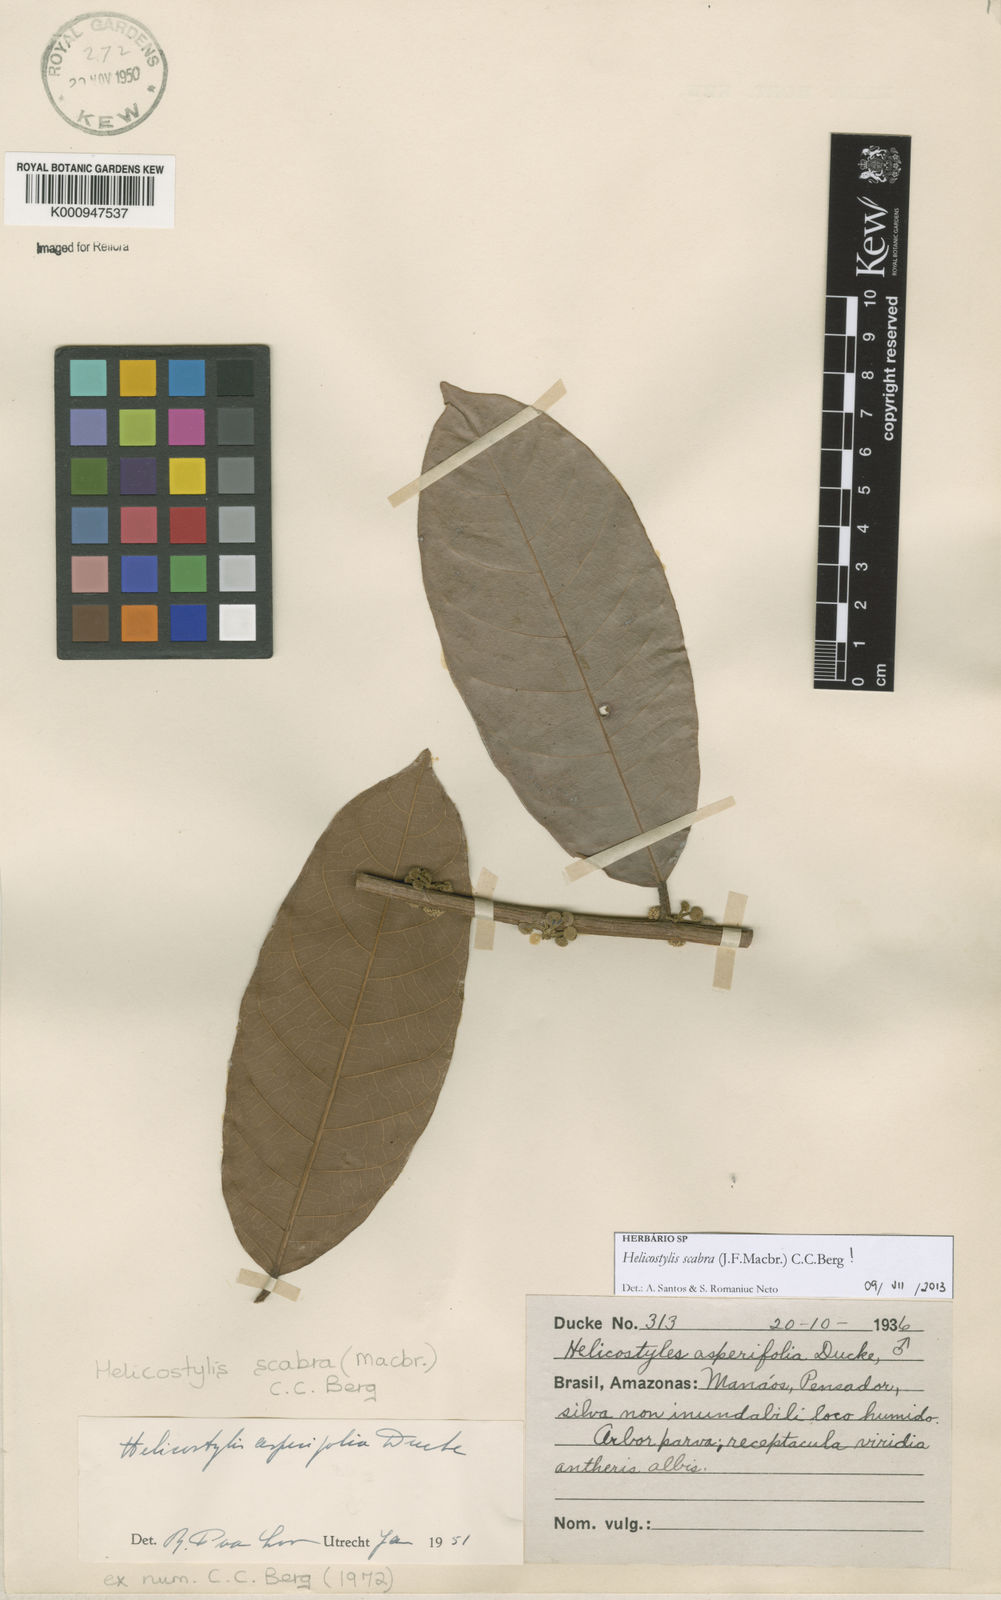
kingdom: Plantae
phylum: Tracheophyta
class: Magnoliopsida
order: Rosales
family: Moraceae
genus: Helicostylis
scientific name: Helicostylis scabra
